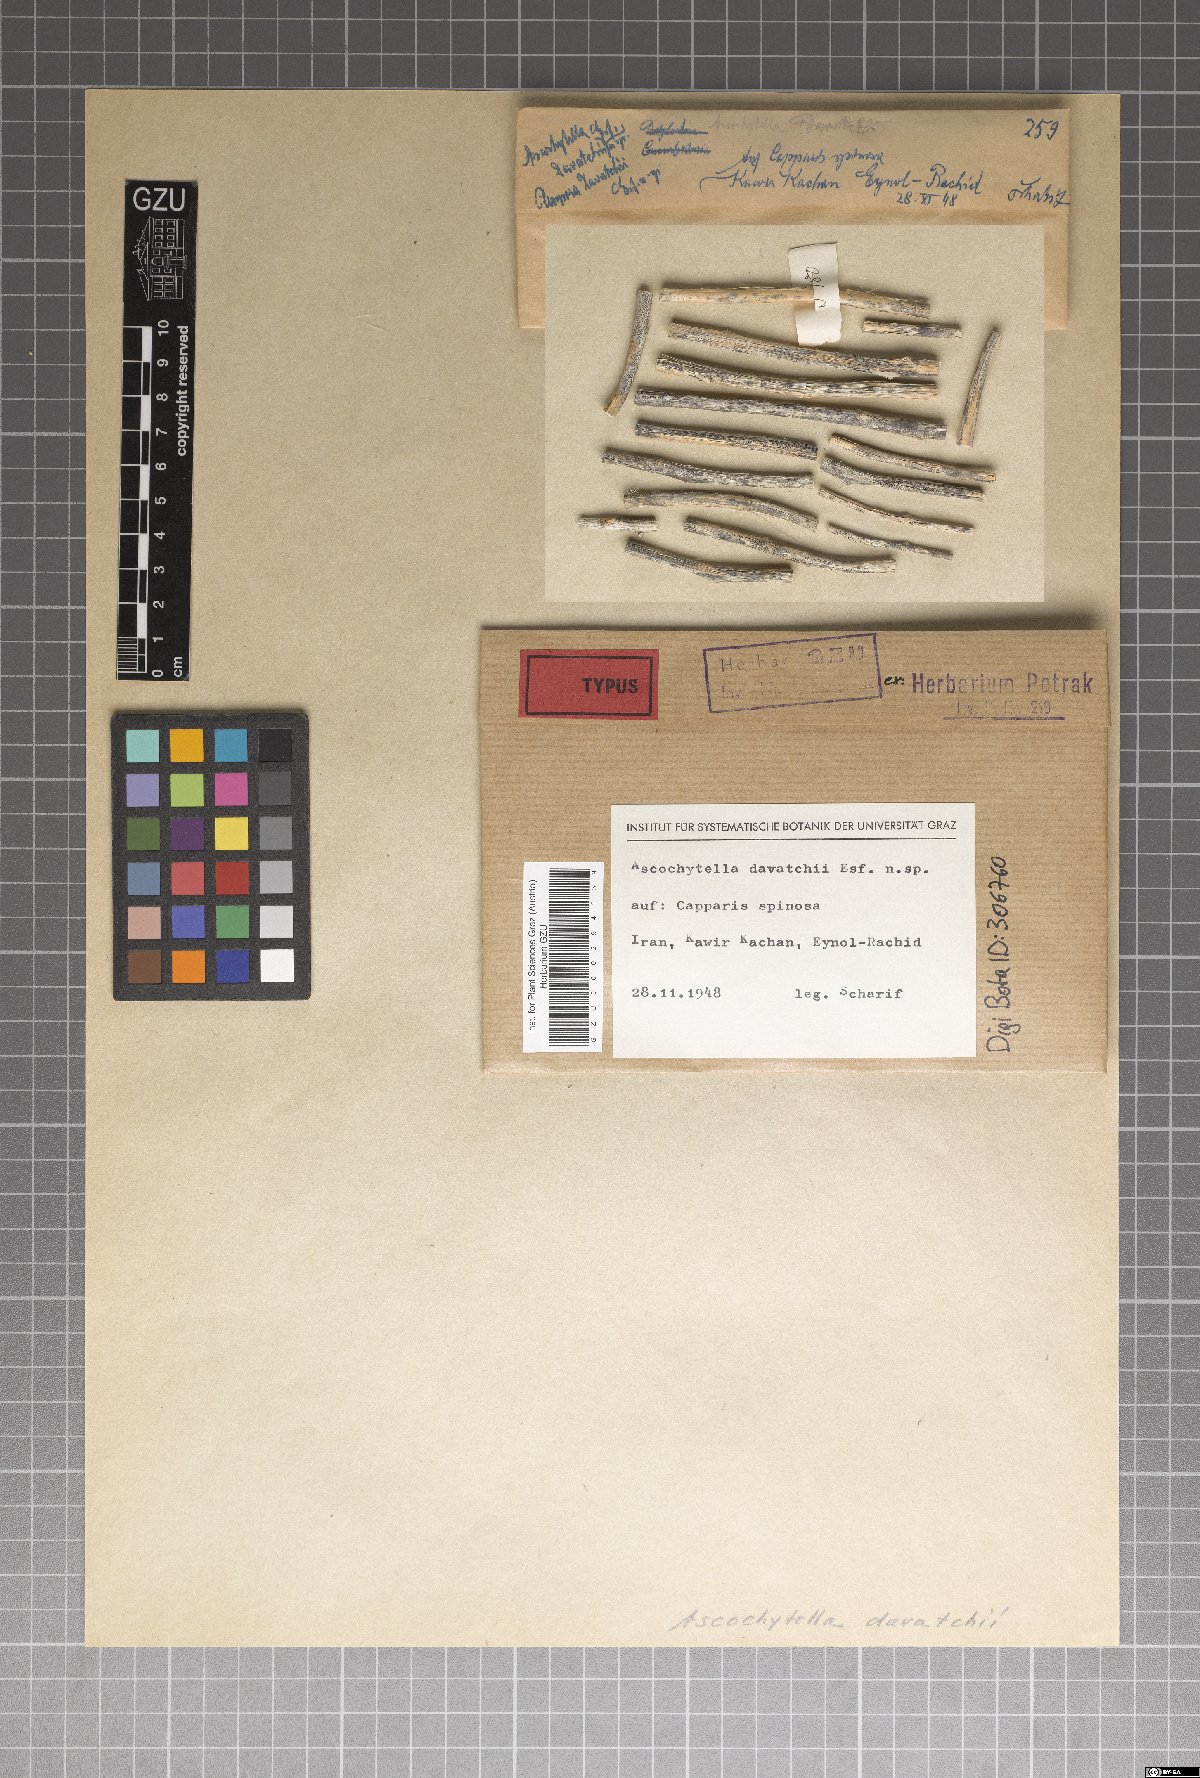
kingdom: Fungi
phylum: Ascomycota
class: Dothideomycetes
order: Pleosporales
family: Didymellaceae
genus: Ascochytella
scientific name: Ascochytella davatchii
